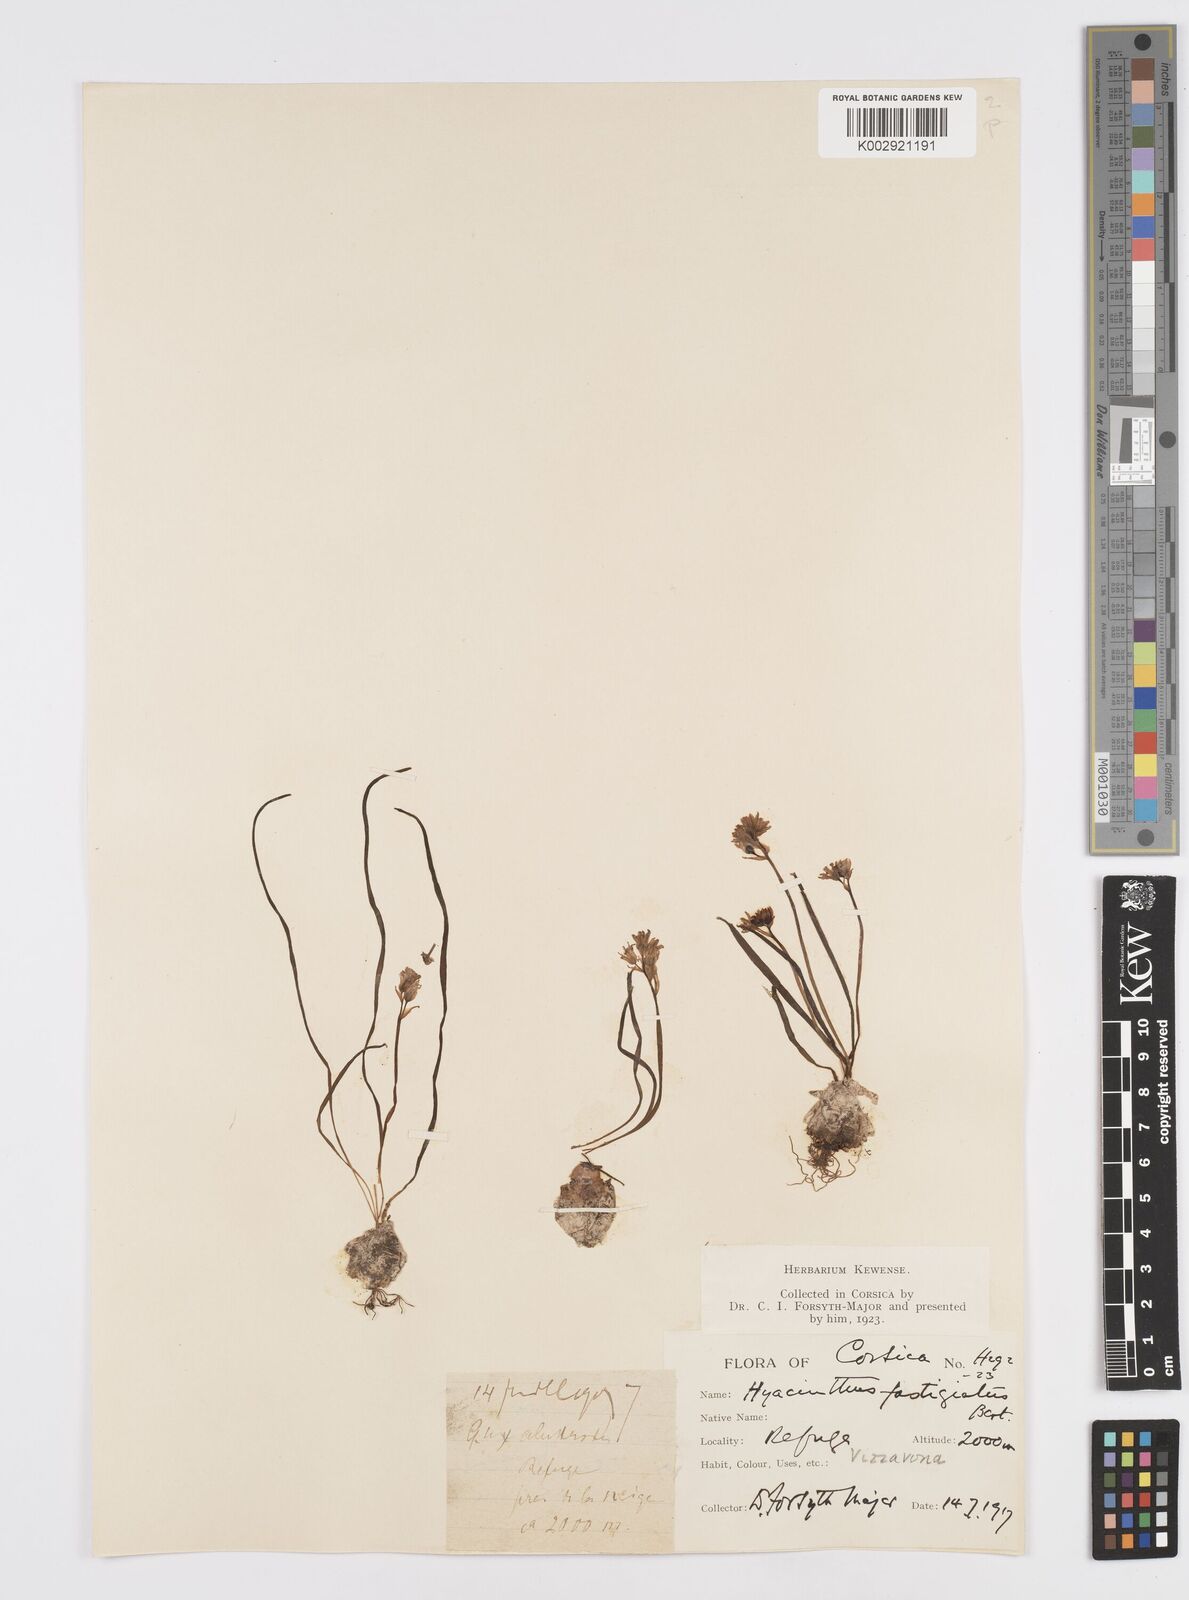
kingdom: Plantae
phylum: Tracheophyta
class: Liliopsida
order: Asparagales
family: Asparagaceae
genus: Brimeura
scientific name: Brimeura fastigiata
